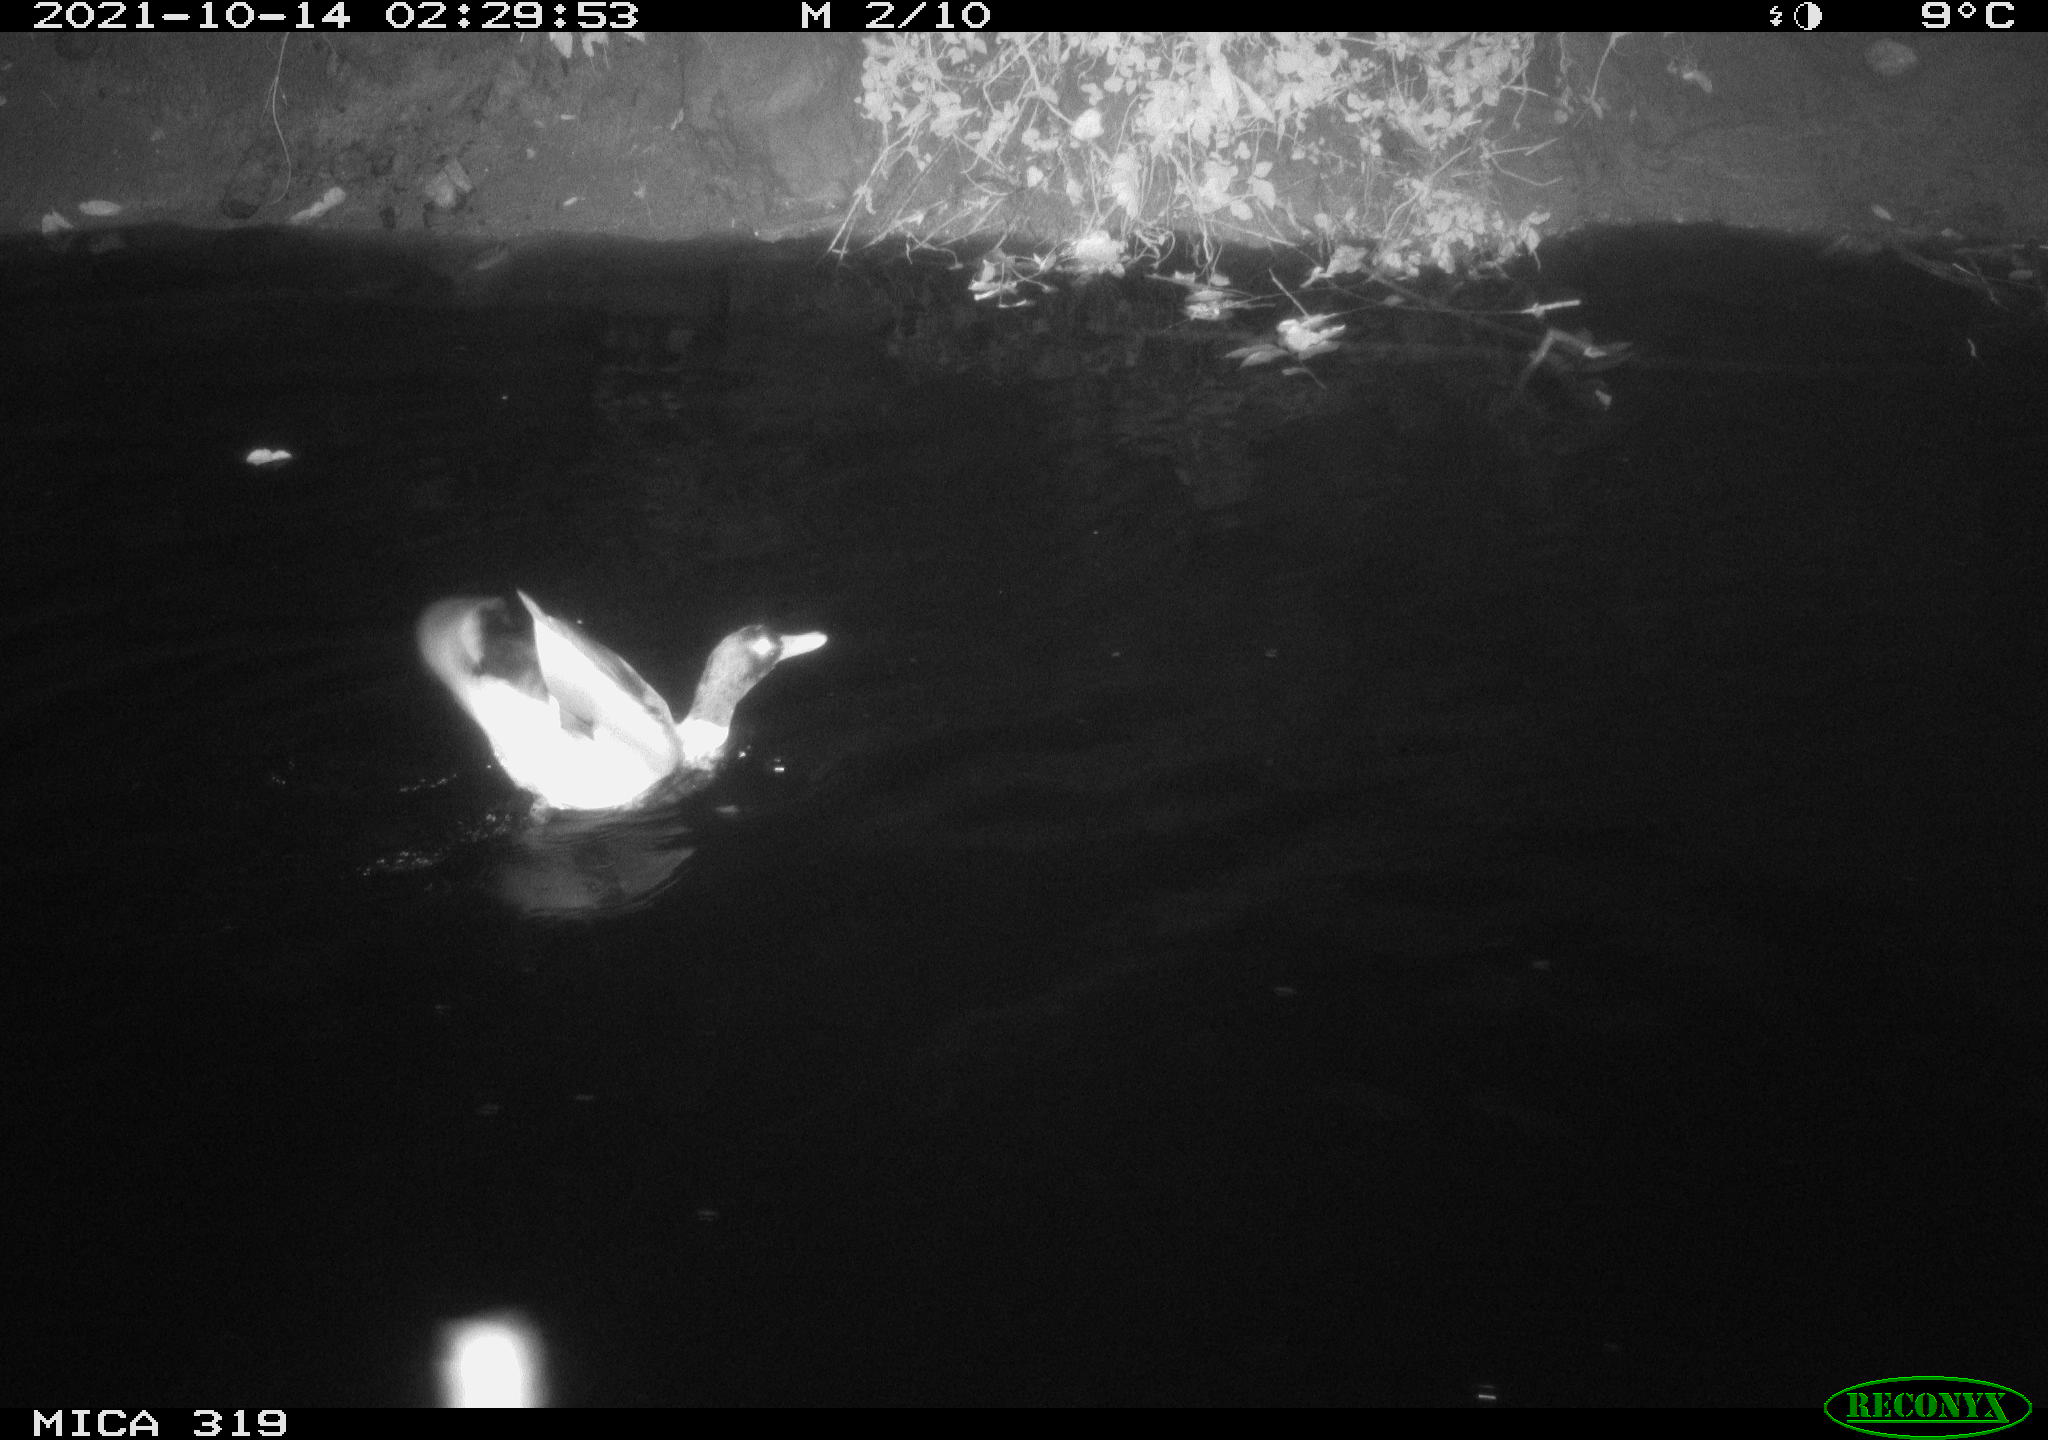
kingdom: Animalia
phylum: Chordata
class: Aves
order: Anseriformes
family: Anatidae
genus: Anas
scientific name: Anas platyrhynchos
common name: Mallard
